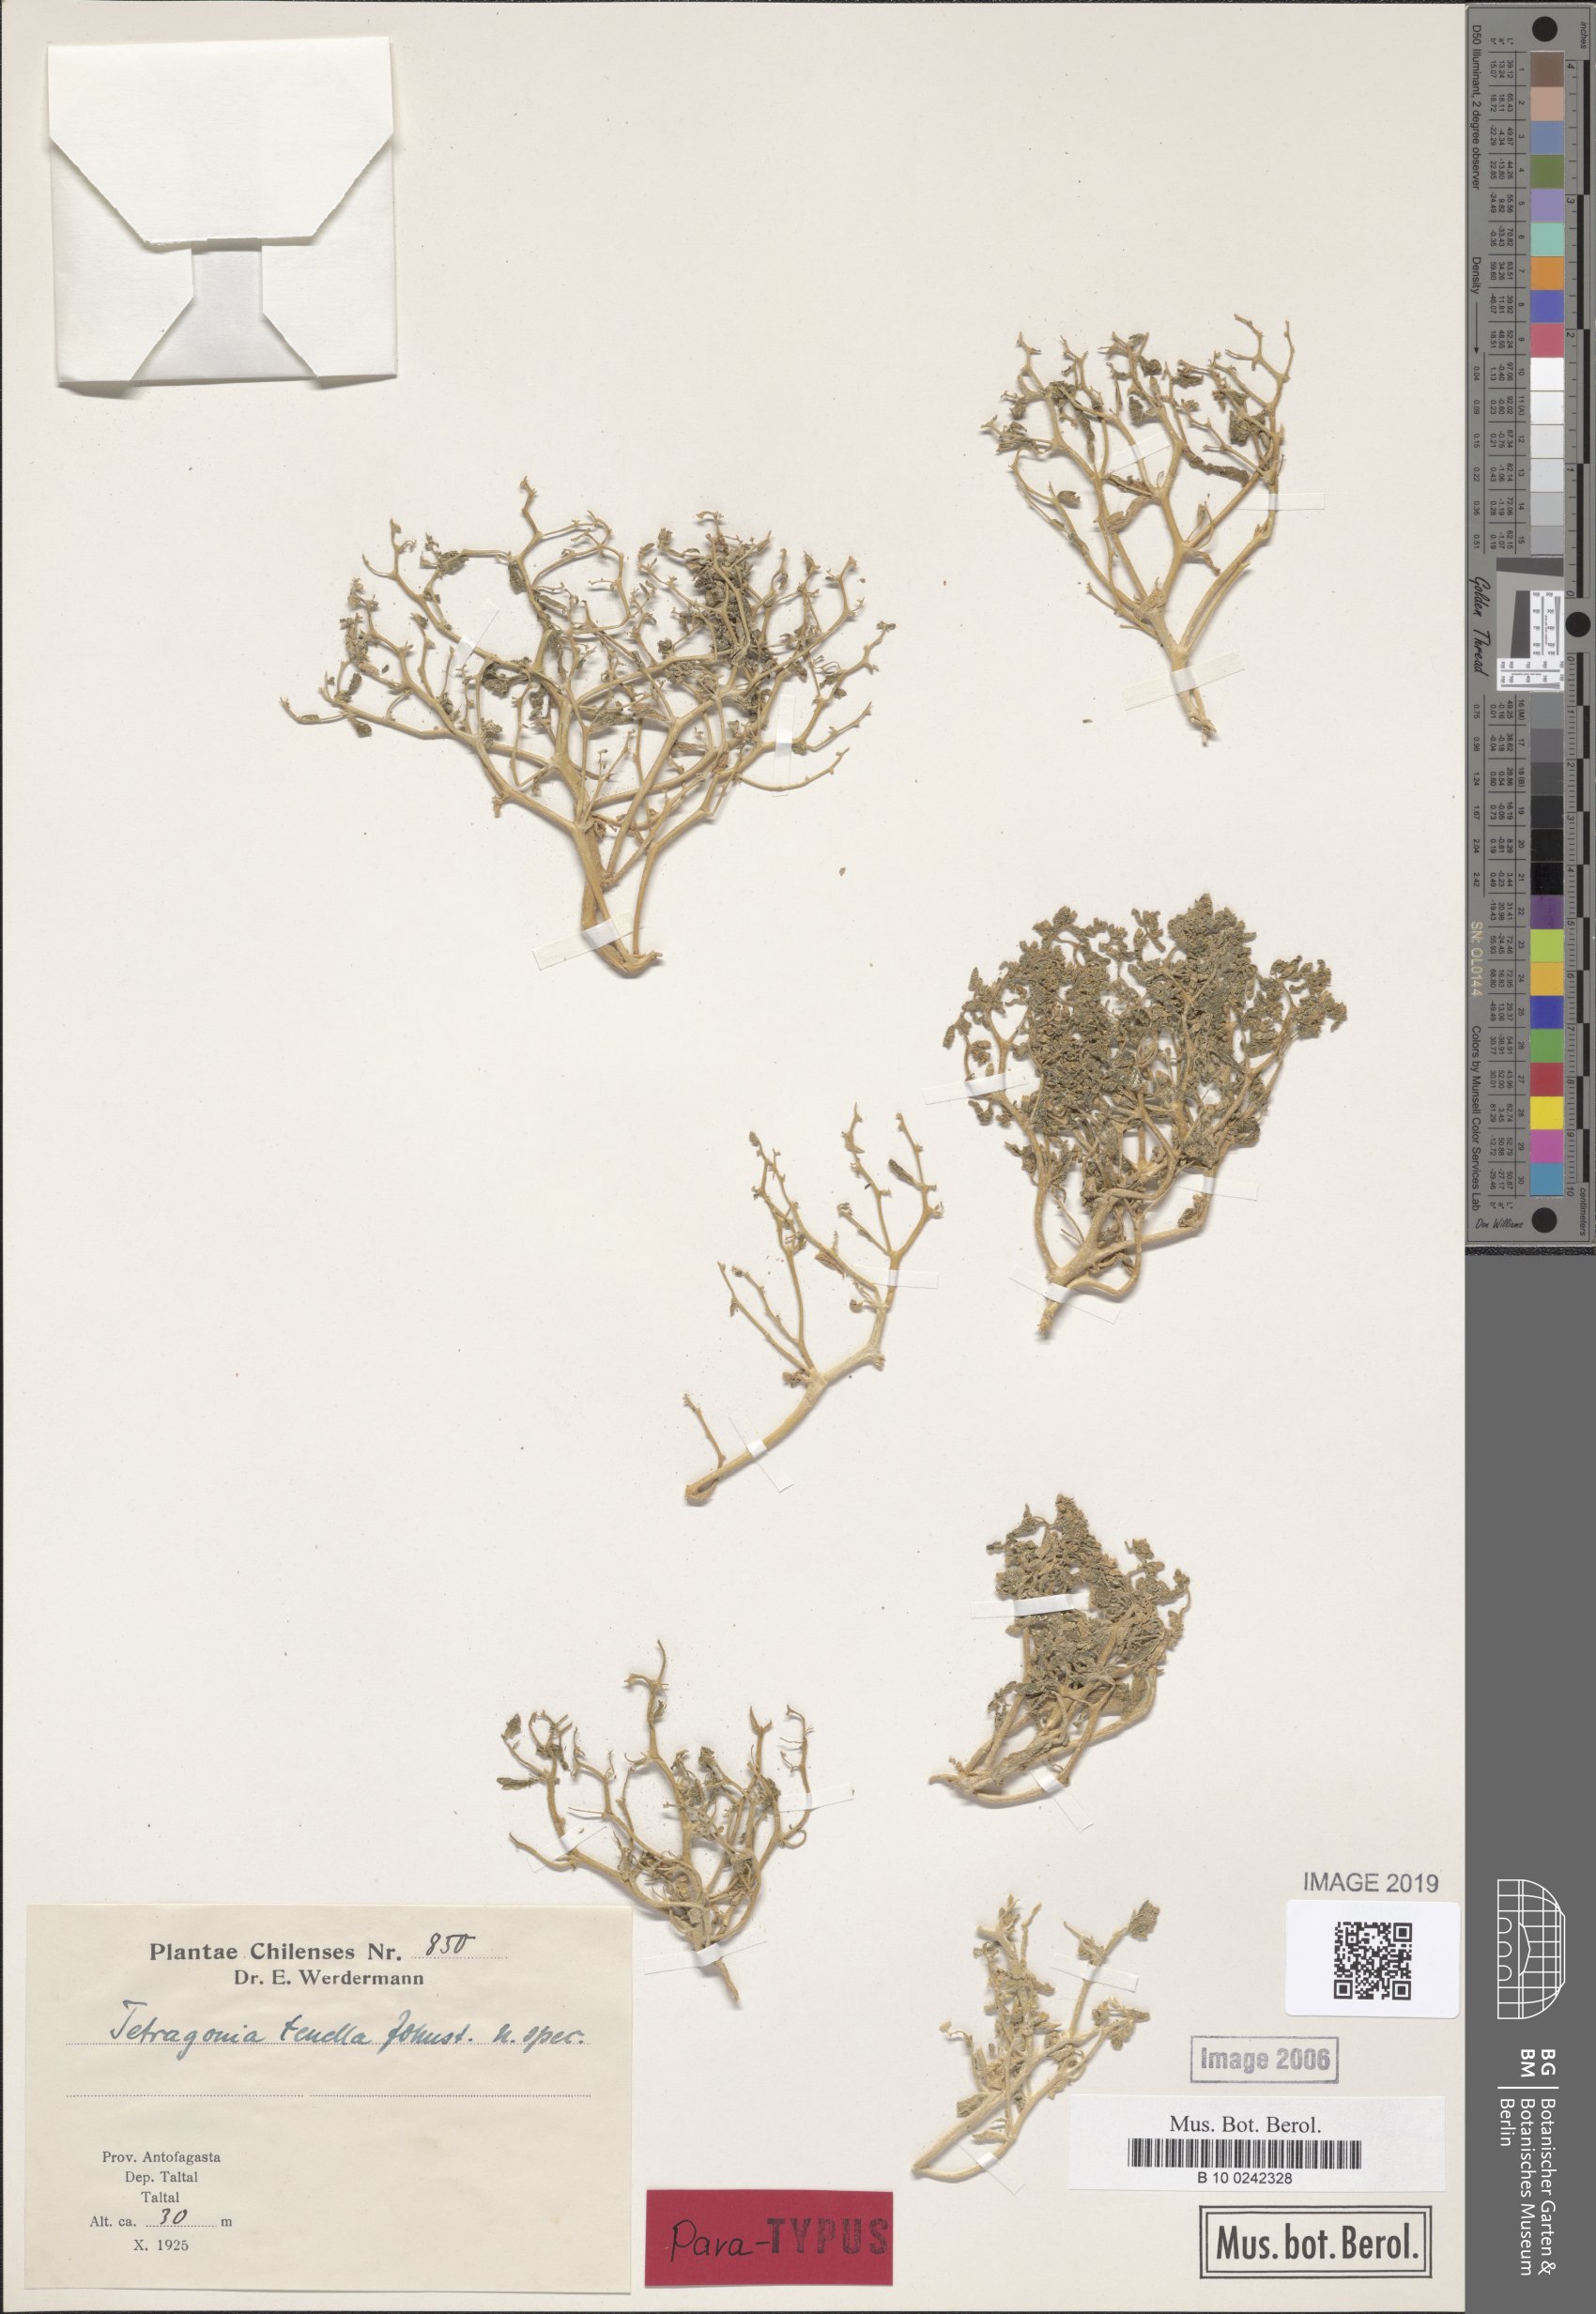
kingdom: Plantae
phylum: Tracheophyta
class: Magnoliopsida
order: Caryophyllales
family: Aizoaceae
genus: Tetragonia
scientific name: Tetragonia microcarpa
